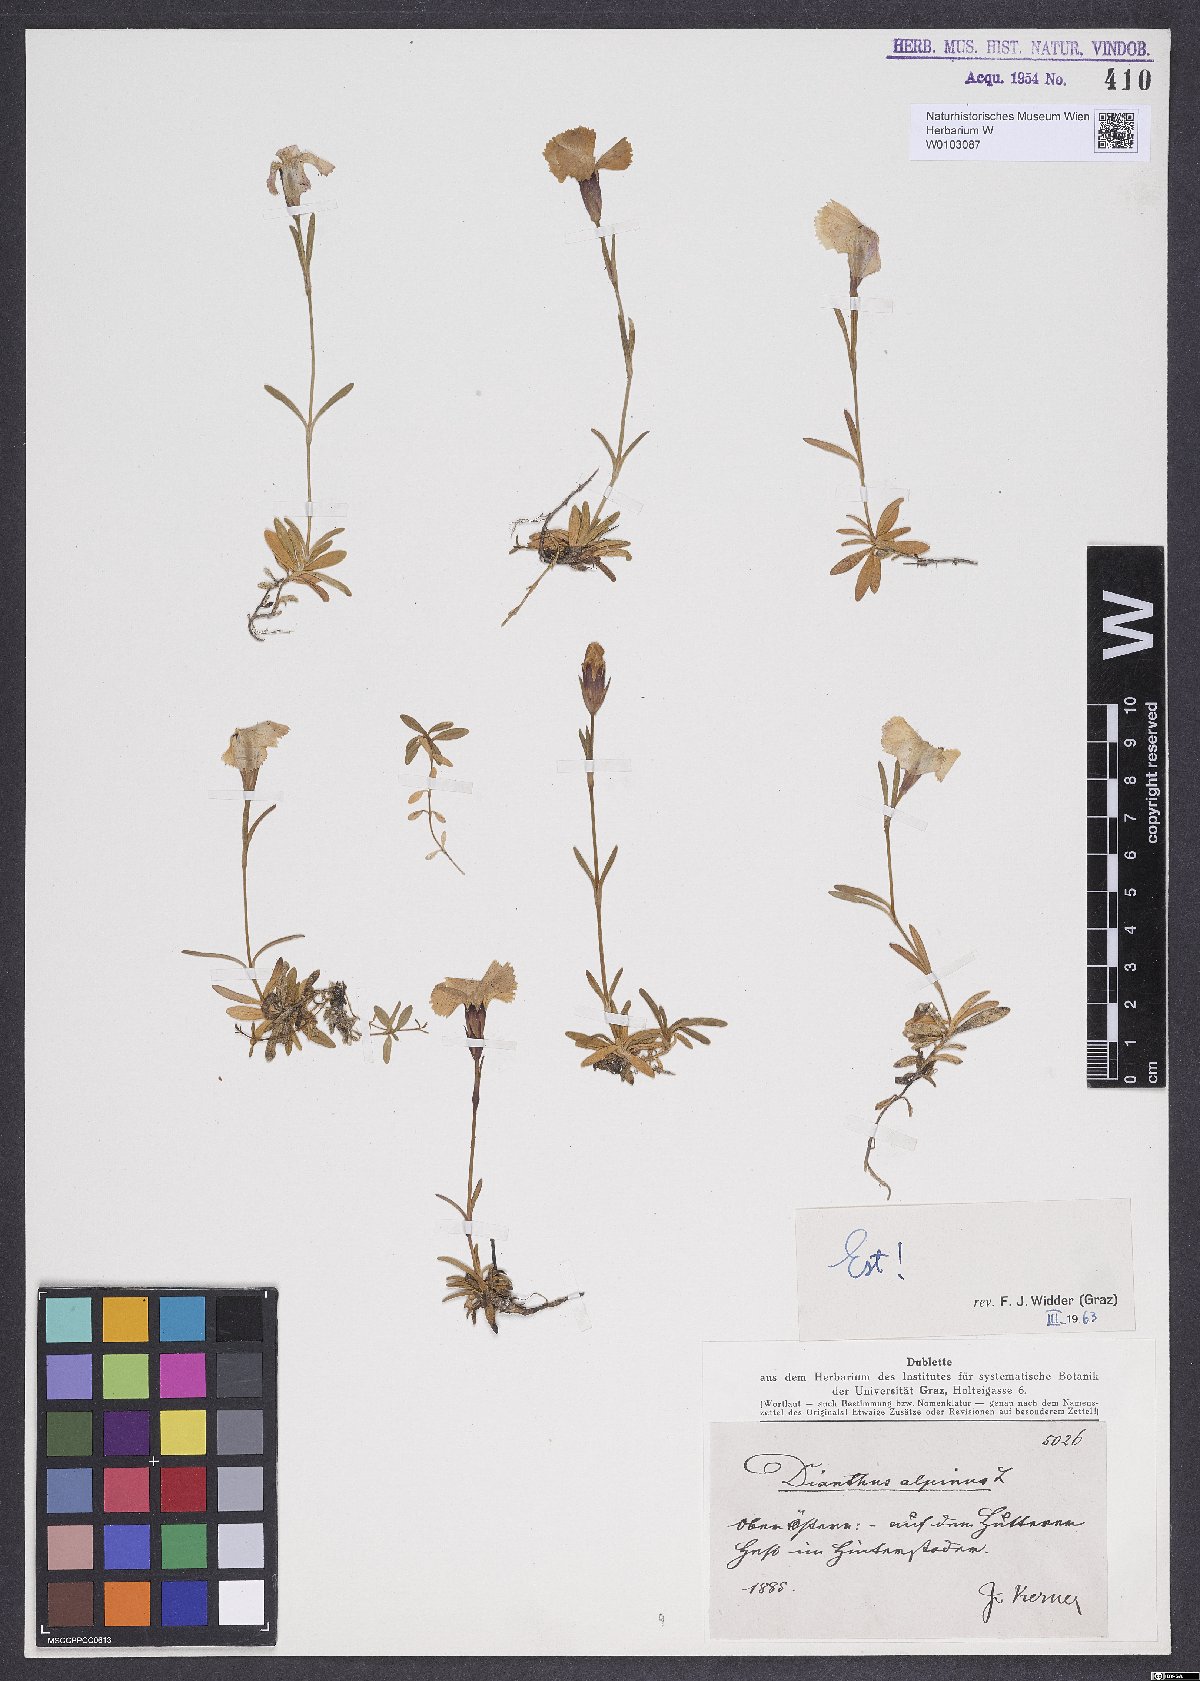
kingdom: Plantae
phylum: Tracheophyta
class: Magnoliopsida
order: Caryophyllales
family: Caryophyllaceae
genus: Dianthus
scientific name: Dianthus alpinus
